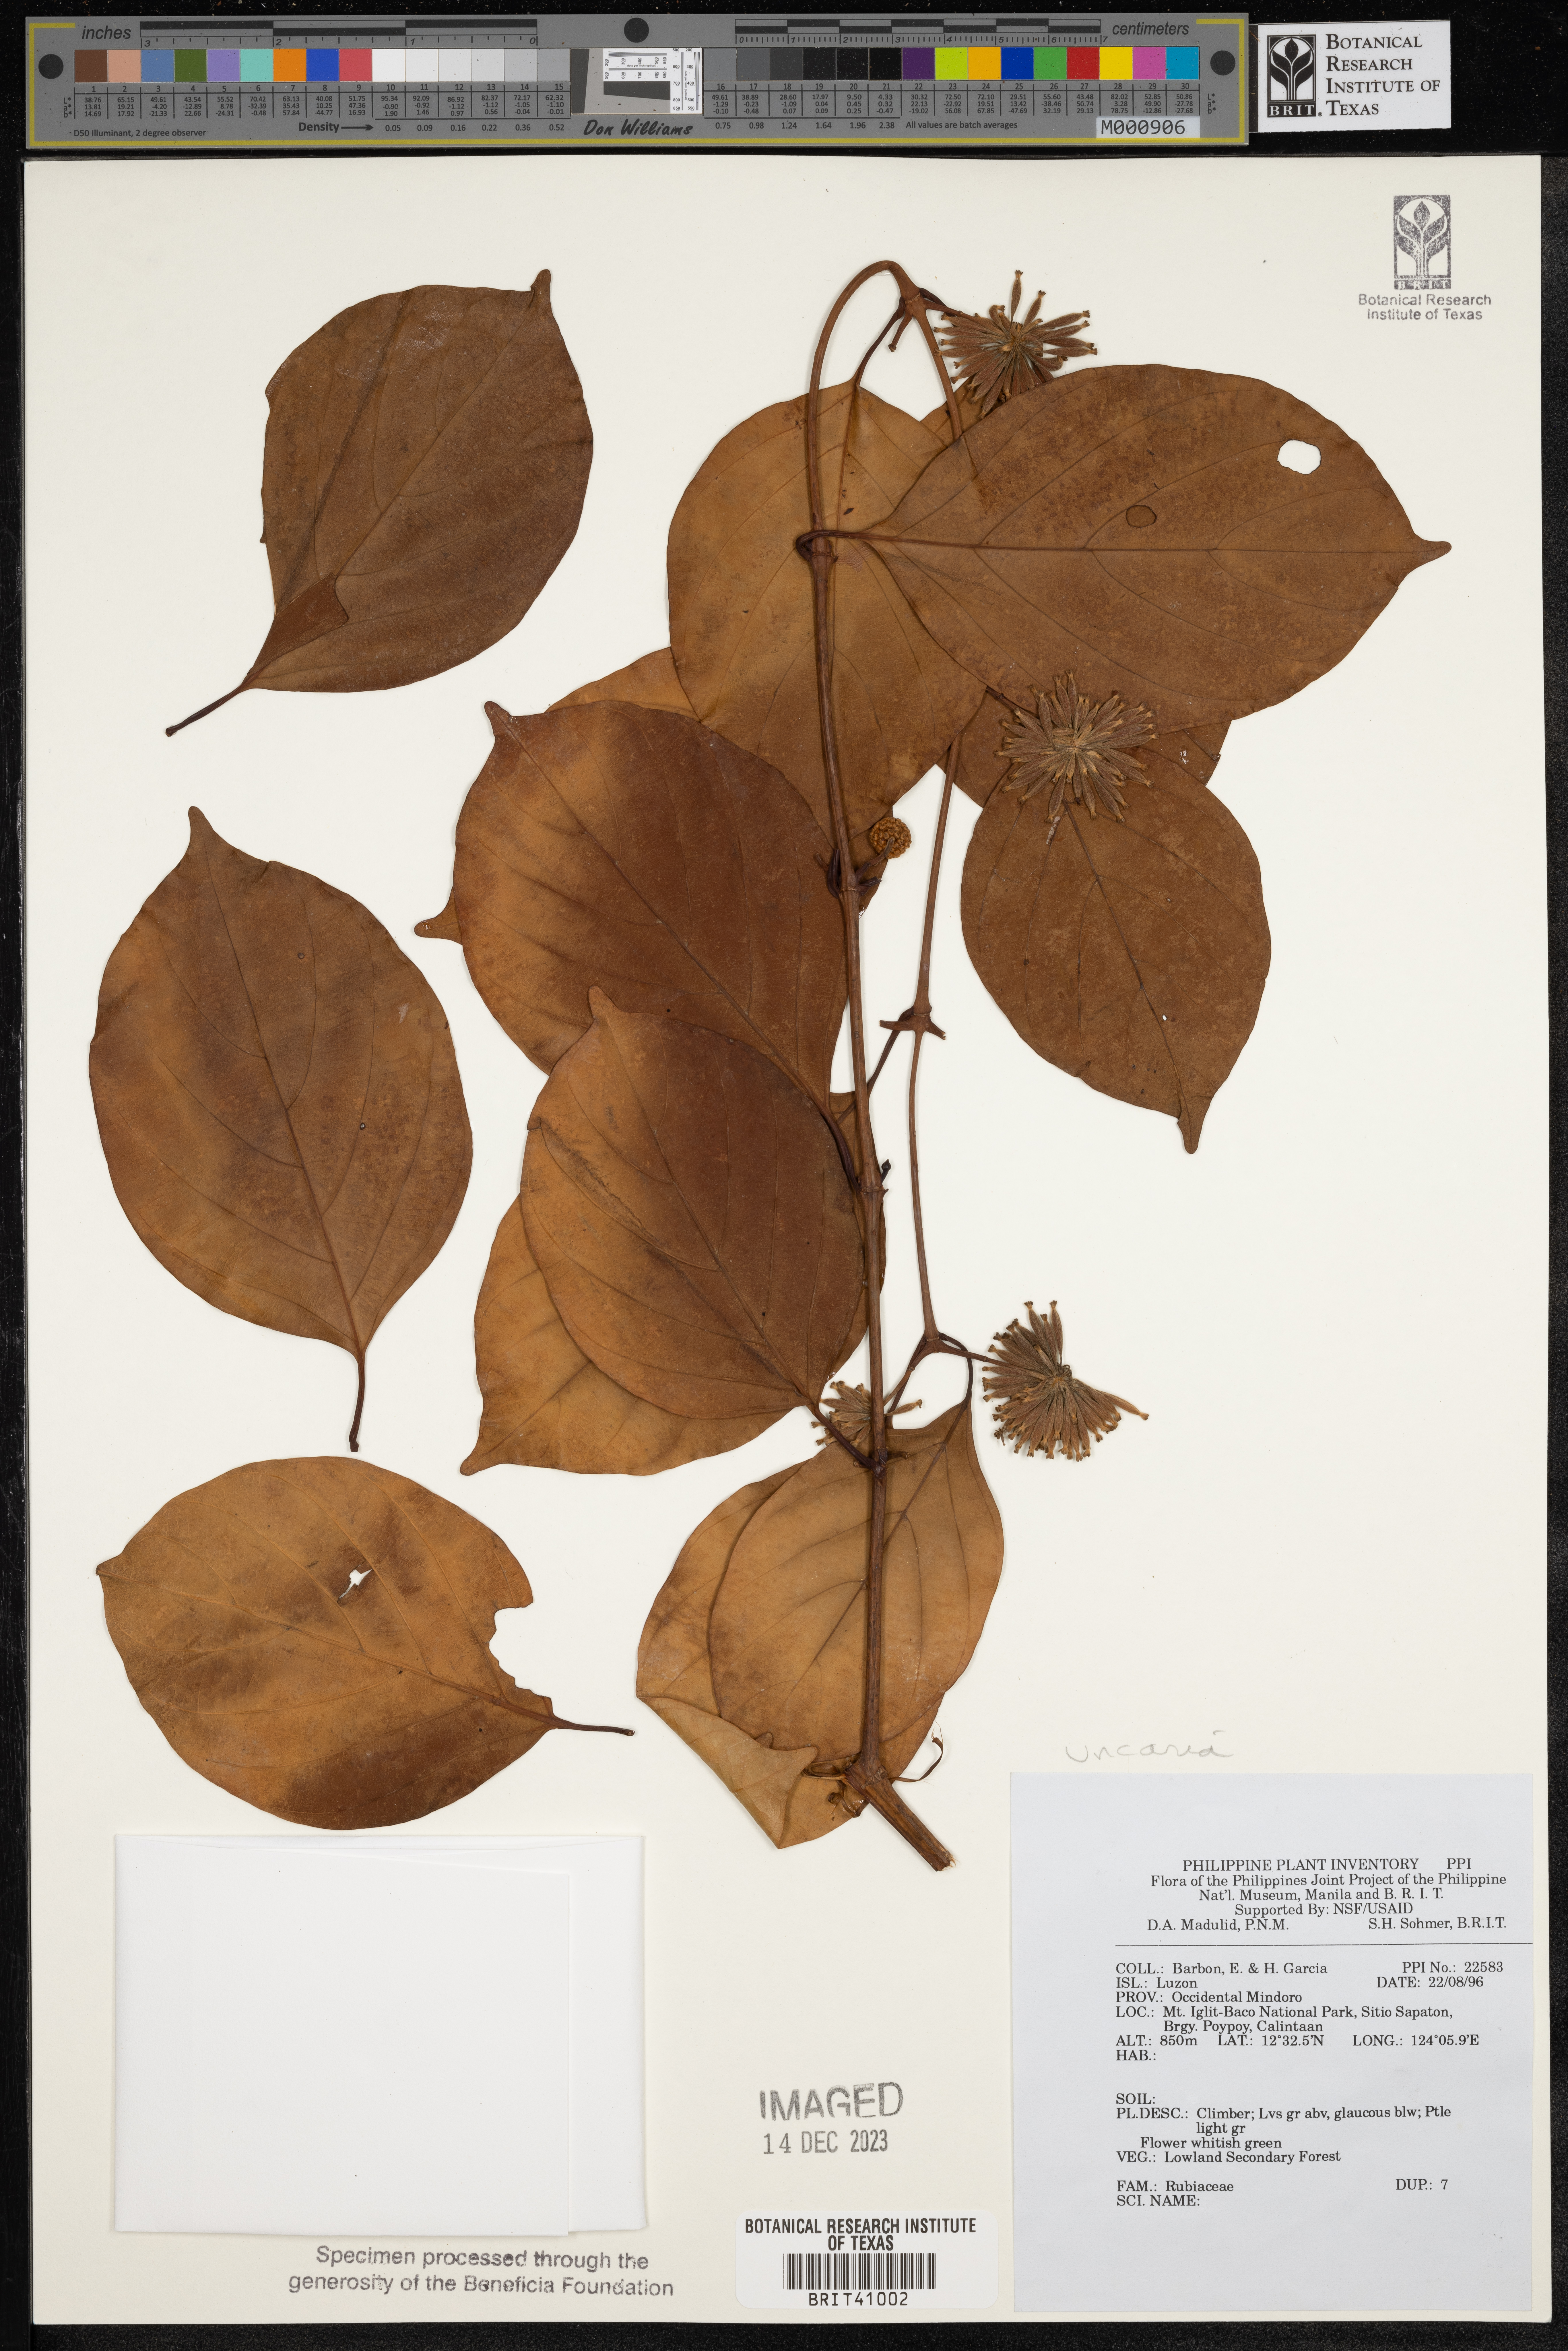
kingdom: Plantae
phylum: Tracheophyta
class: Magnoliopsida
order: Gentianales
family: Rubiaceae
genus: Uncaria
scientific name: Uncaria
